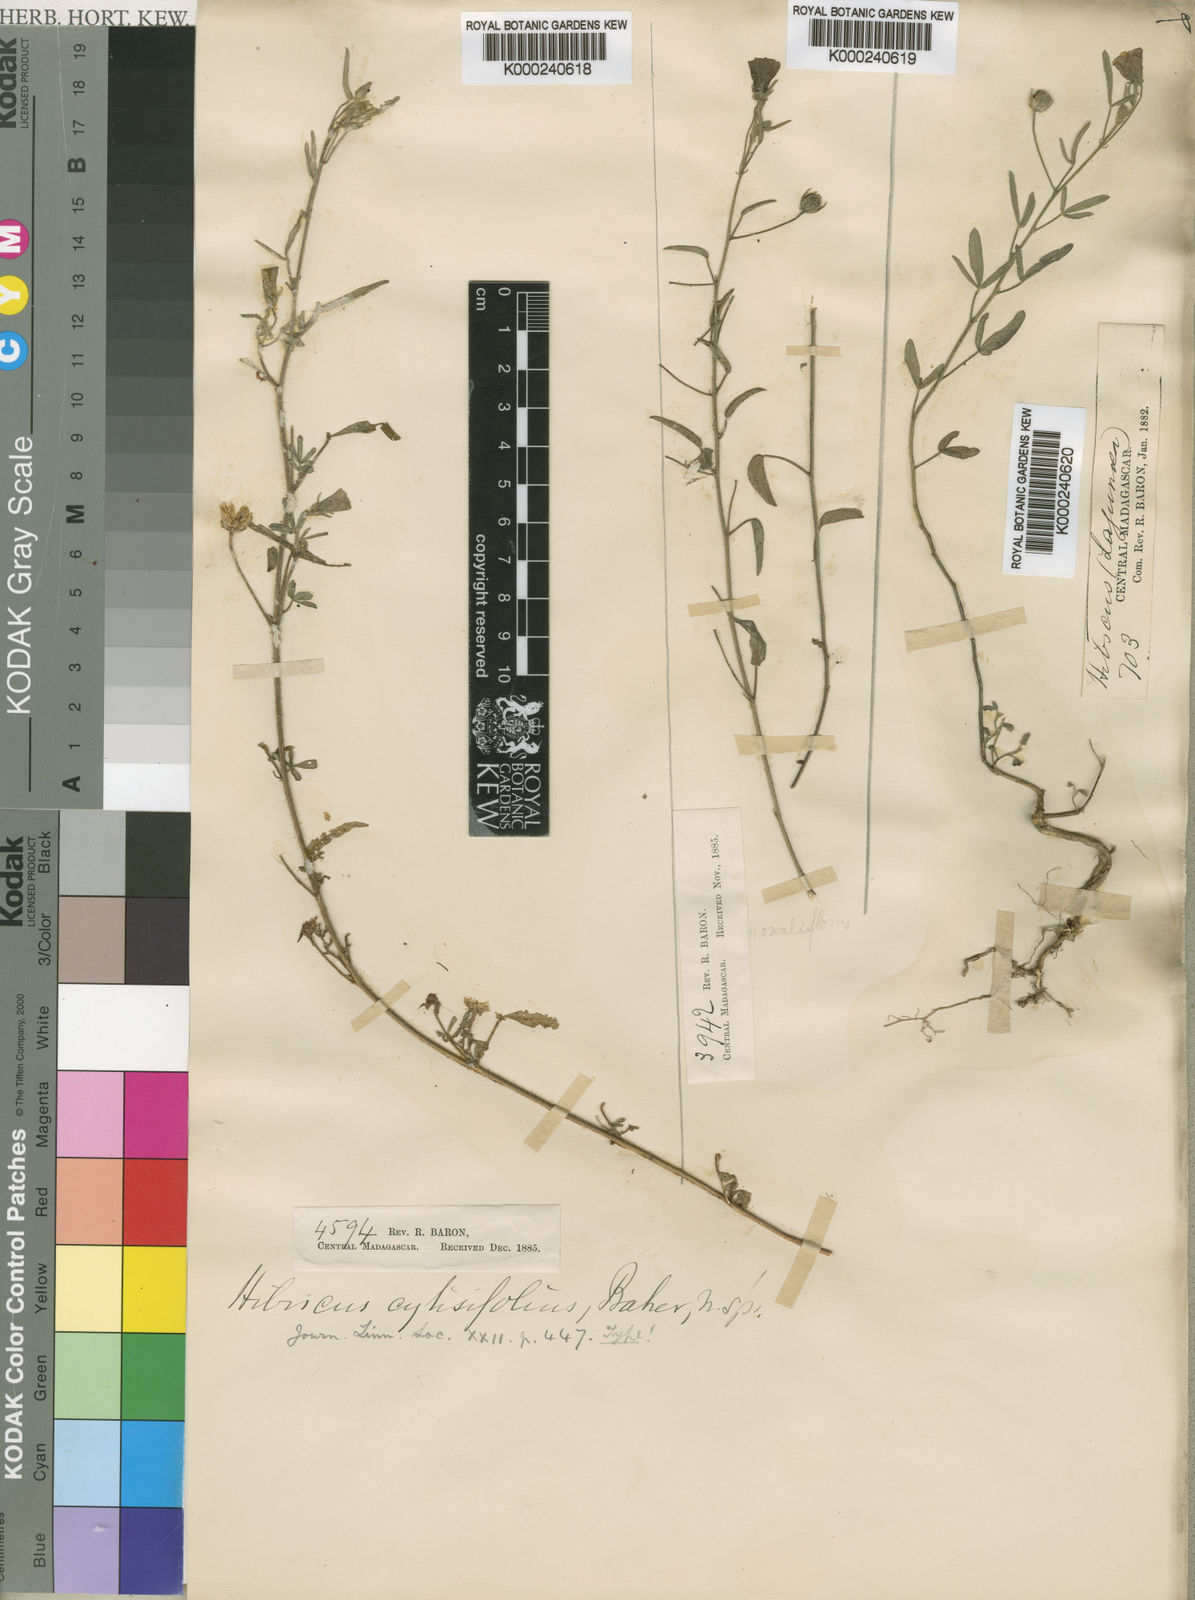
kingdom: Plantae
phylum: Tracheophyta
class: Magnoliopsida
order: Malvales
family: Malvaceae
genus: Hibiscus
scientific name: Hibiscus
